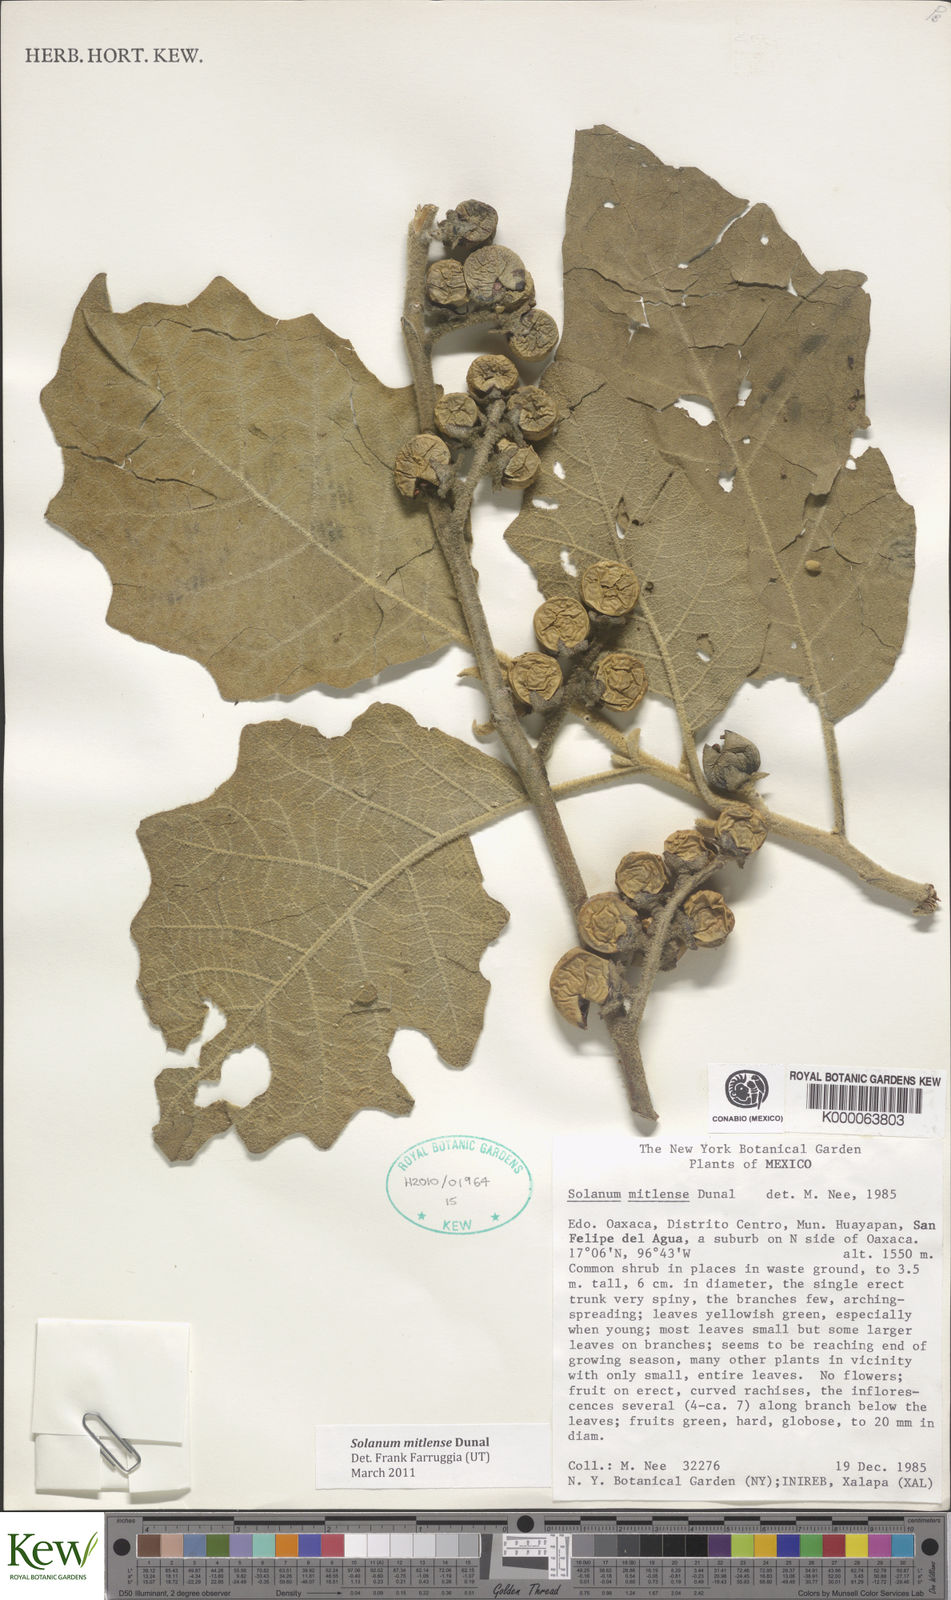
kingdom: Plantae
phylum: Tracheophyta
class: Magnoliopsida
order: Solanales
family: Solanaceae
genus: Solanum
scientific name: Solanum mitlense
